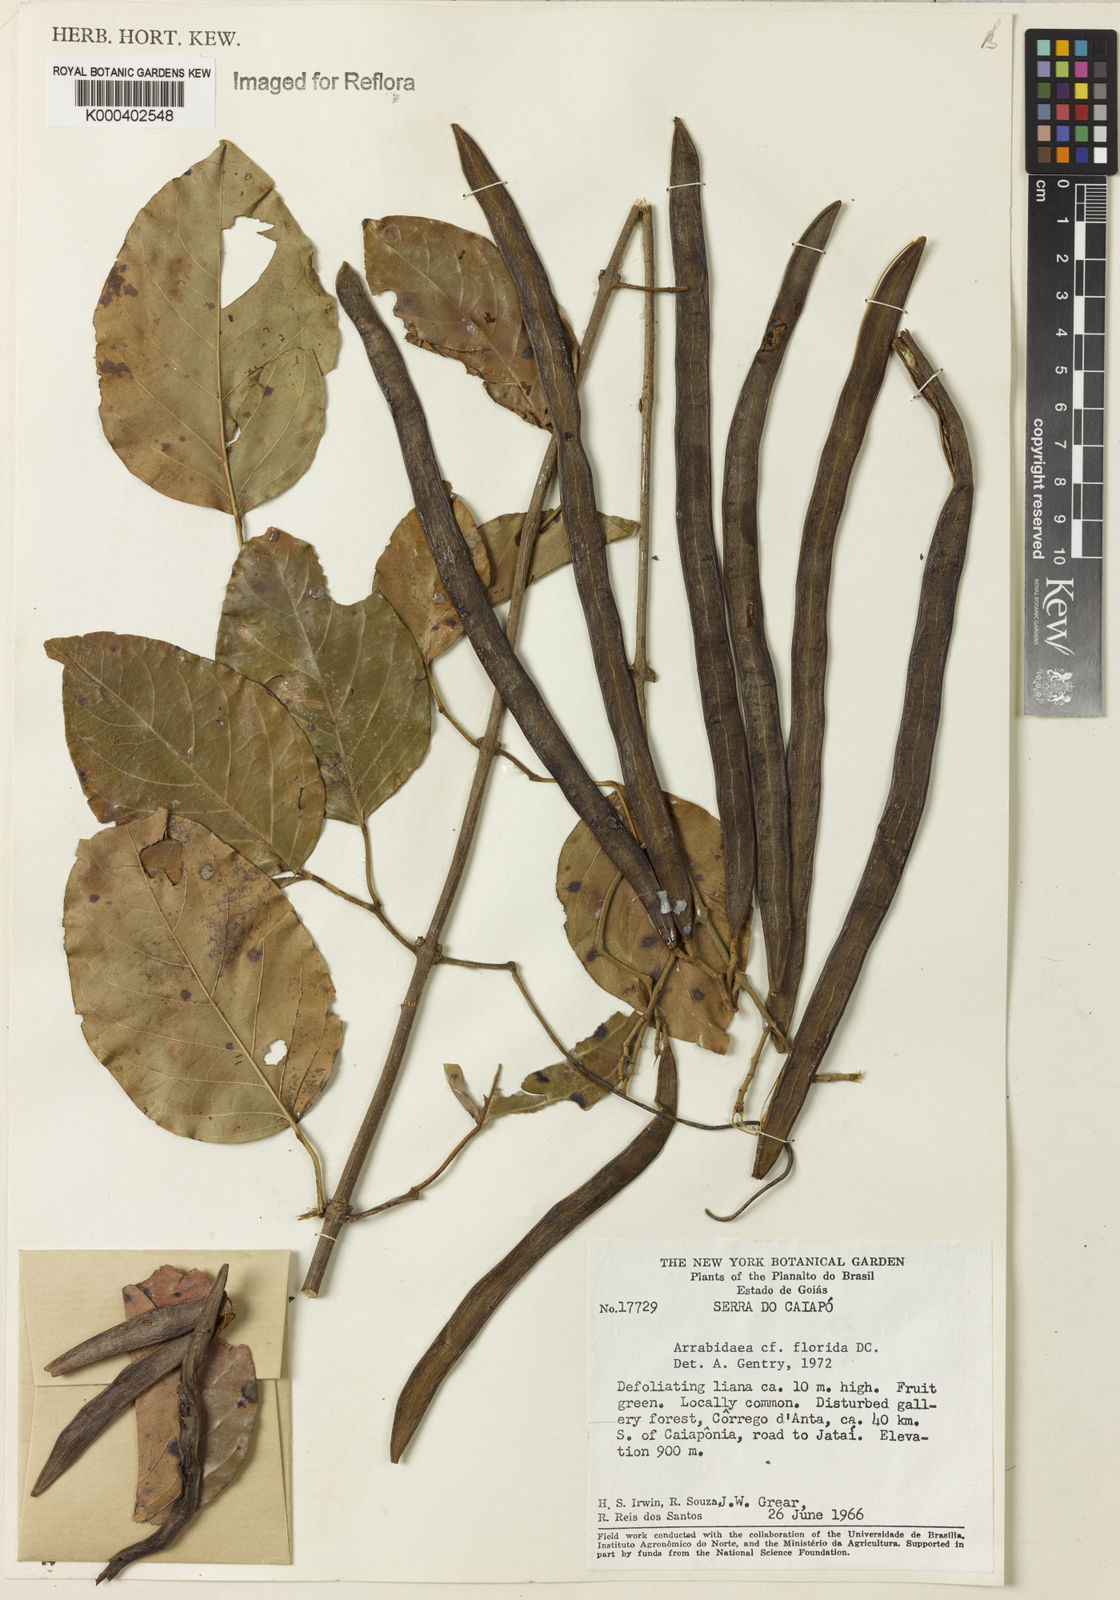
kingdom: Plantae
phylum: Tracheophyta
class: Magnoliopsida
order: Lamiales
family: Bignoniaceae
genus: Fridericia
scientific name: Fridericia florida
